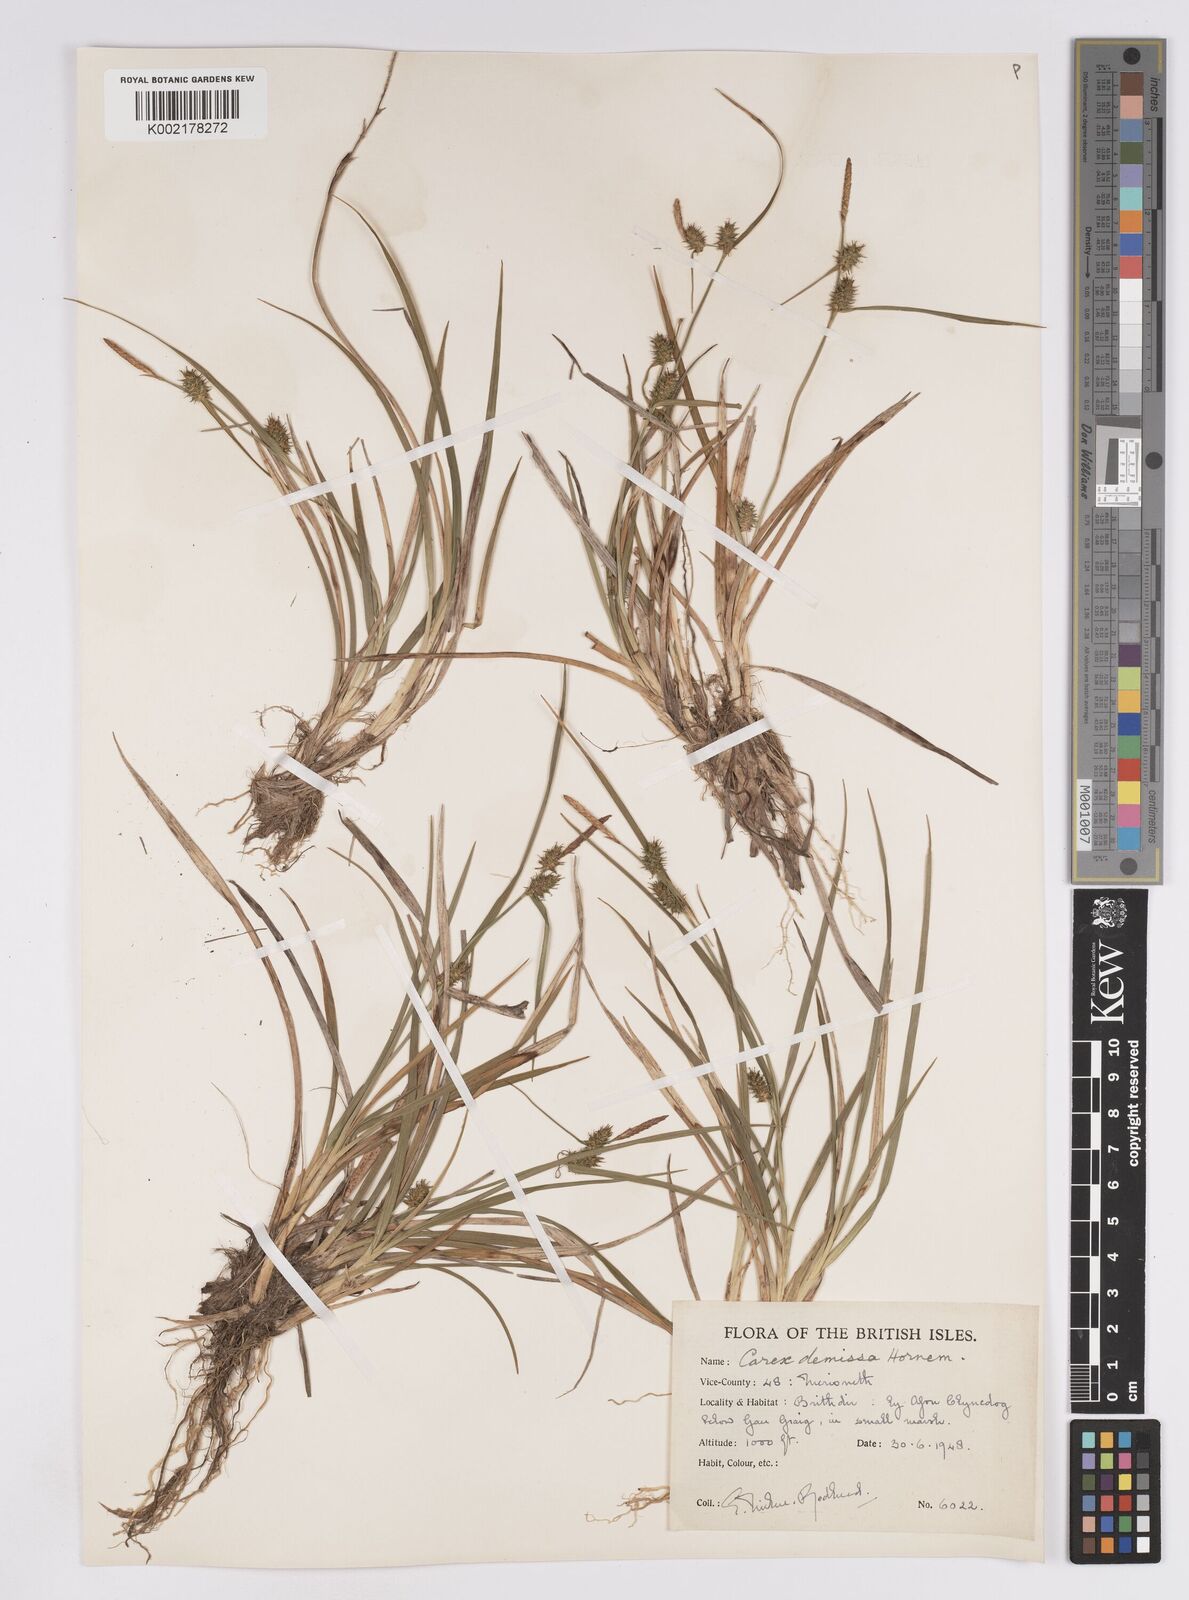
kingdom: Plantae
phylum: Tracheophyta
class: Liliopsida
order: Poales
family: Cyperaceae
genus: Carex
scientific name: Carex demissa
